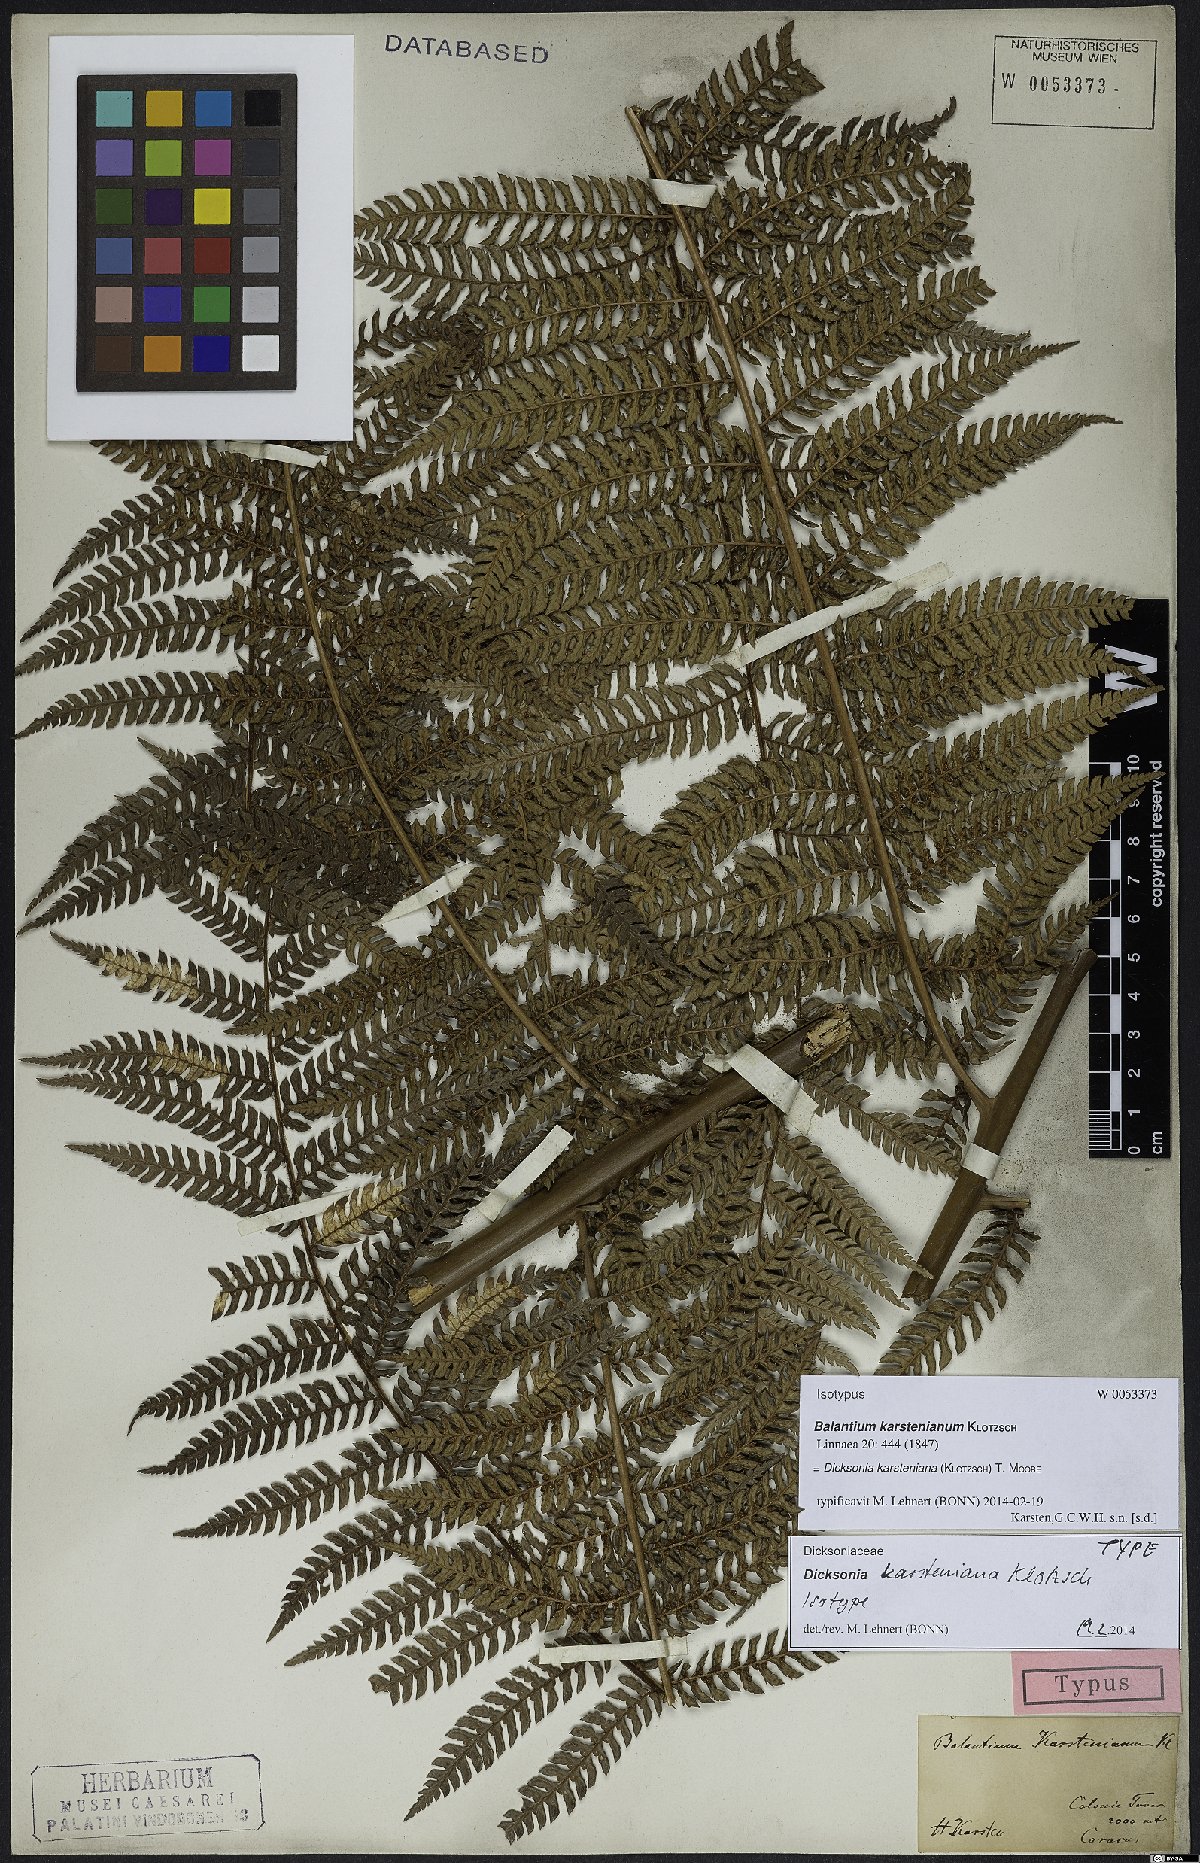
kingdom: Plantae
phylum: Tracheophyta
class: Polypodiopsida
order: Cyatheales
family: Dicksoniaceae
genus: Dicksonia
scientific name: Dicksonia karsteniana
